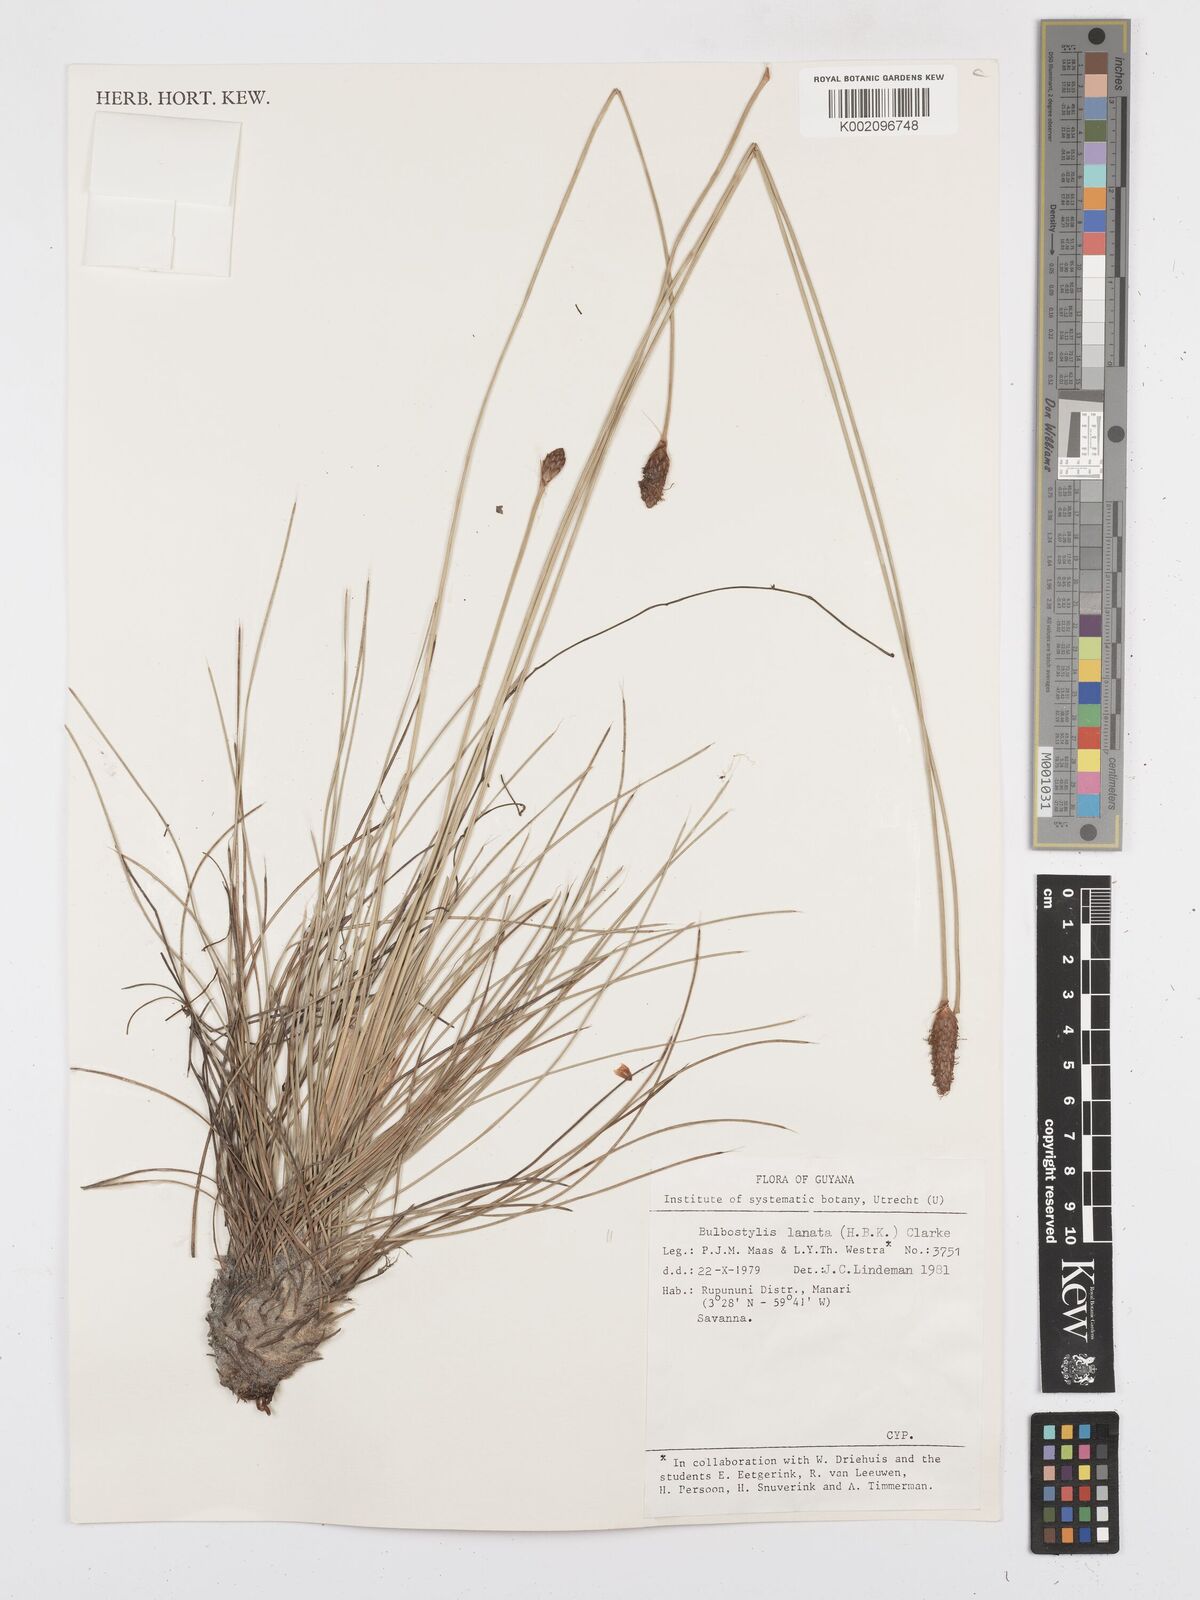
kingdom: Plantae
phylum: Tracheophyta
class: Liliopsida
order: Poales
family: Cyperaceae
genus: Bulbostylis
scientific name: Bulbostylis
